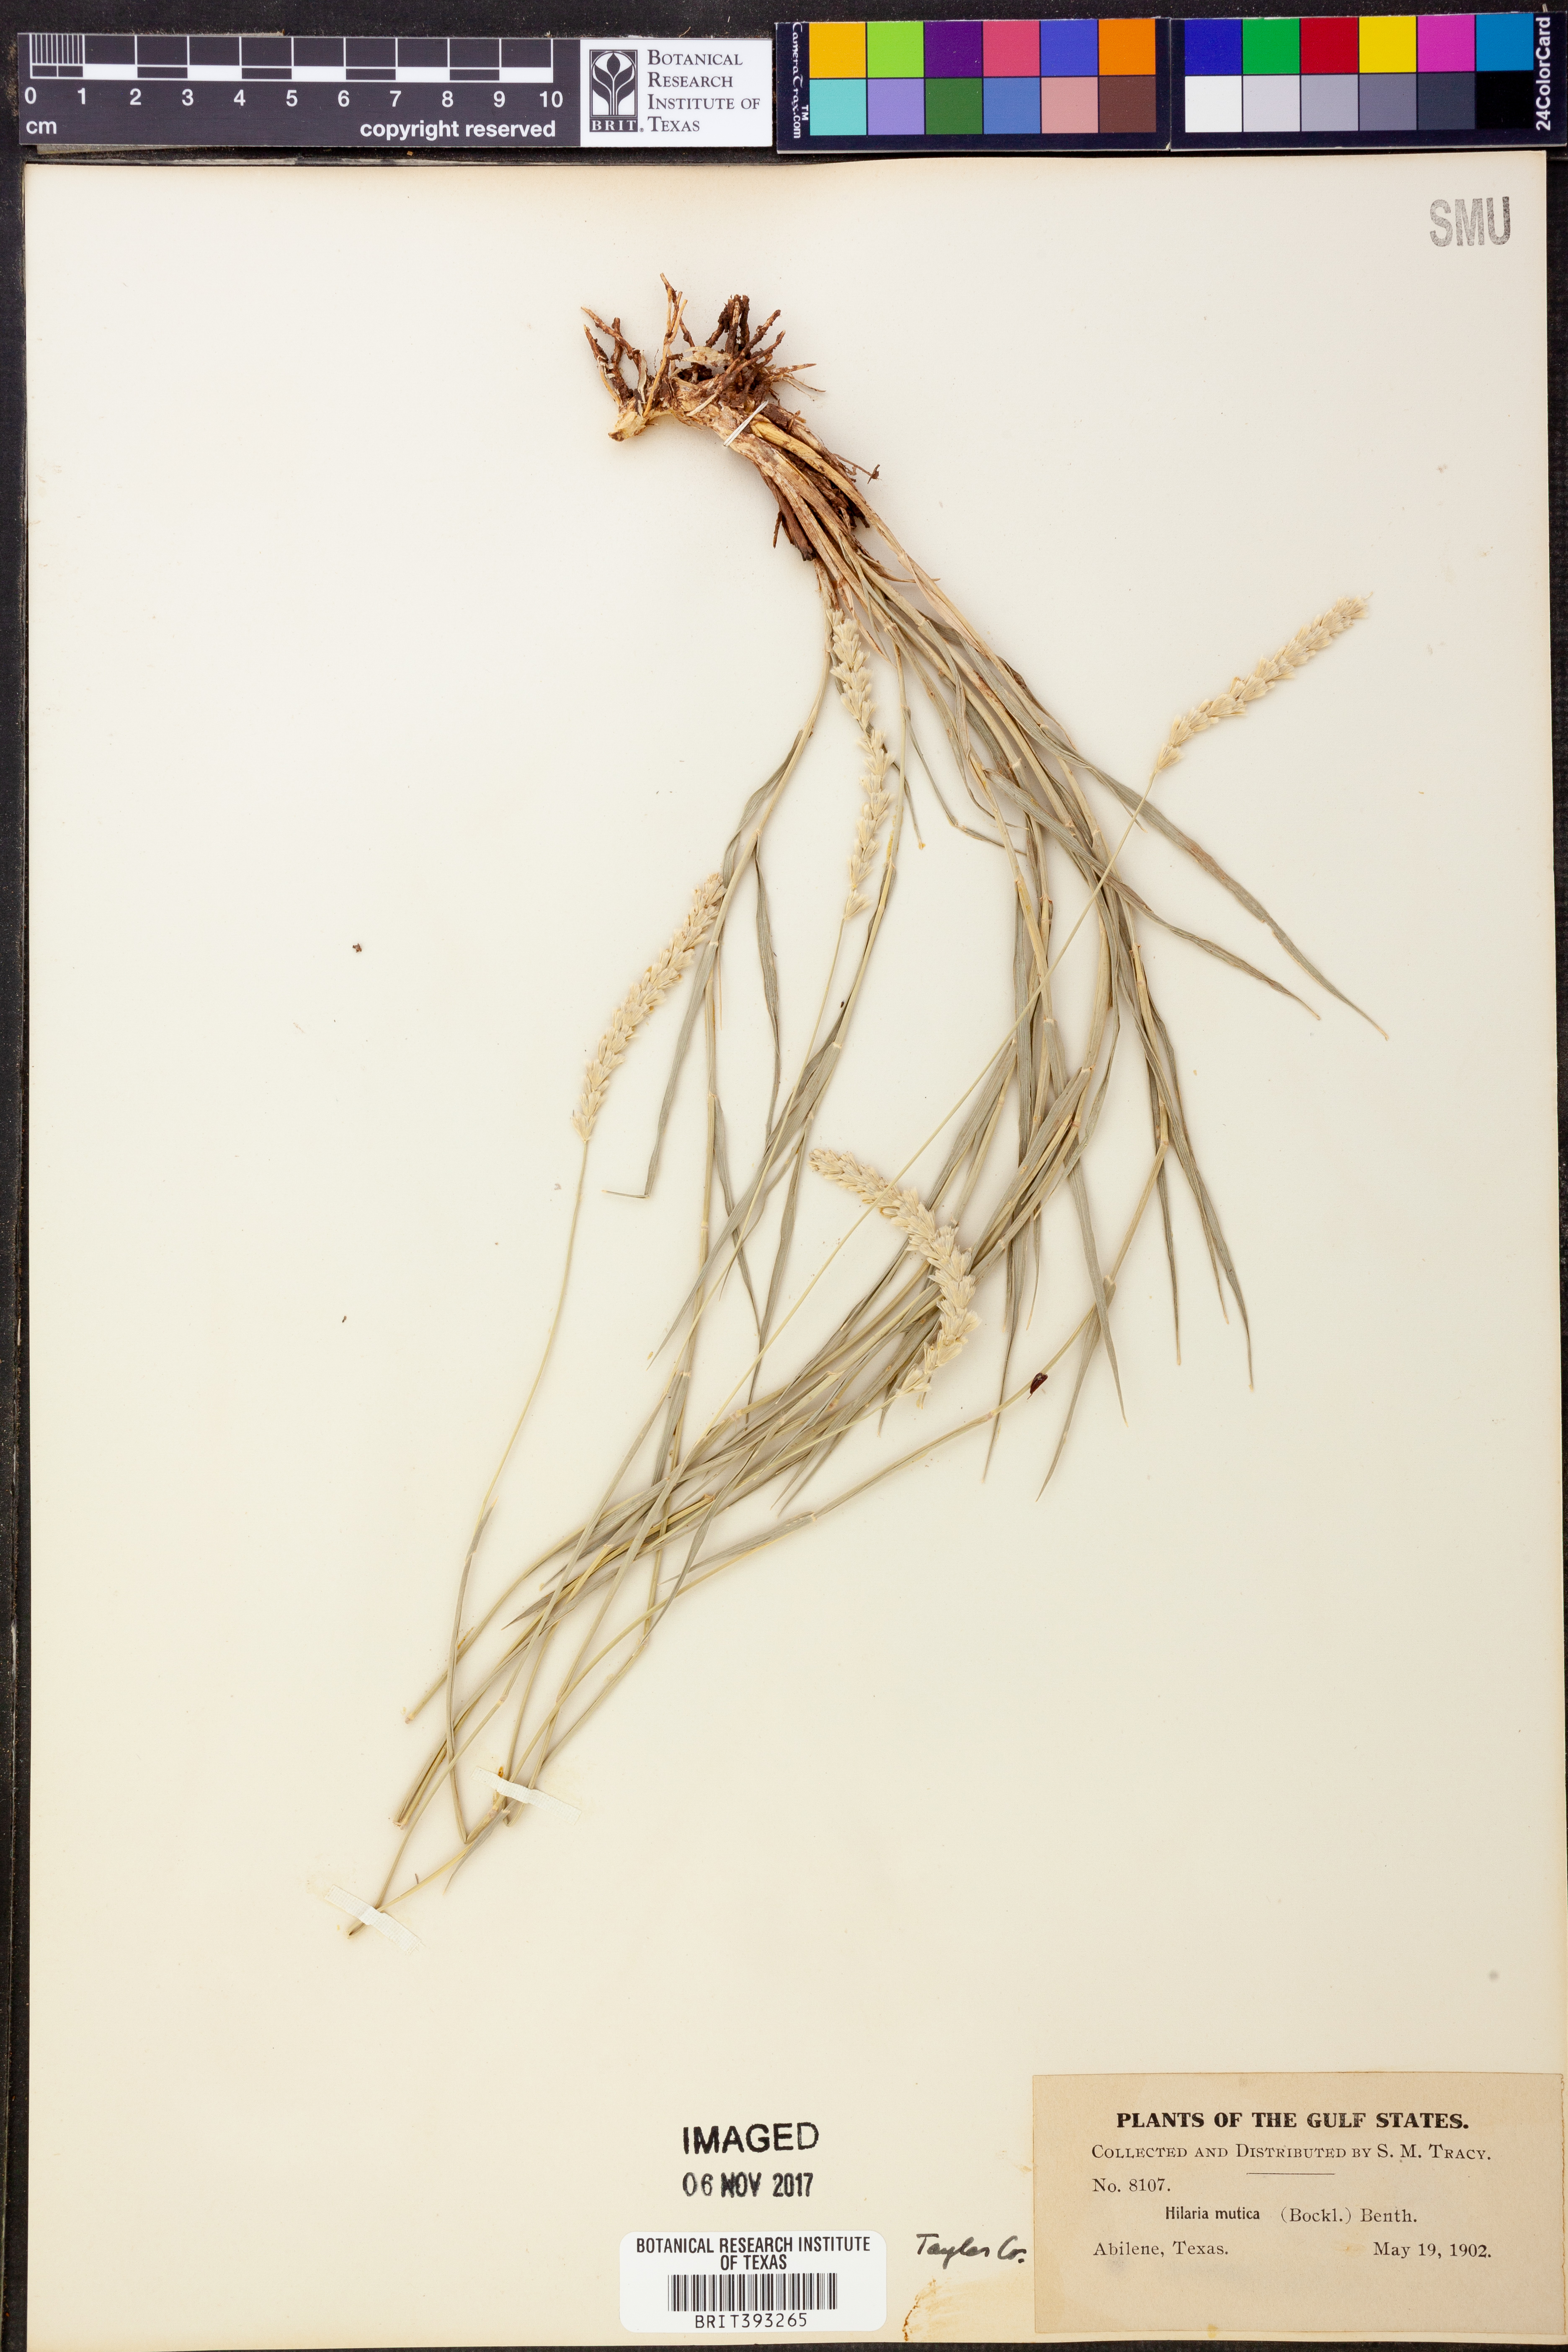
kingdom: Plantae
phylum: Tracheophyta
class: Liliopsida
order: Poales
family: Poaceae
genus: Hilaria
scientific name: Hilaria mutica
